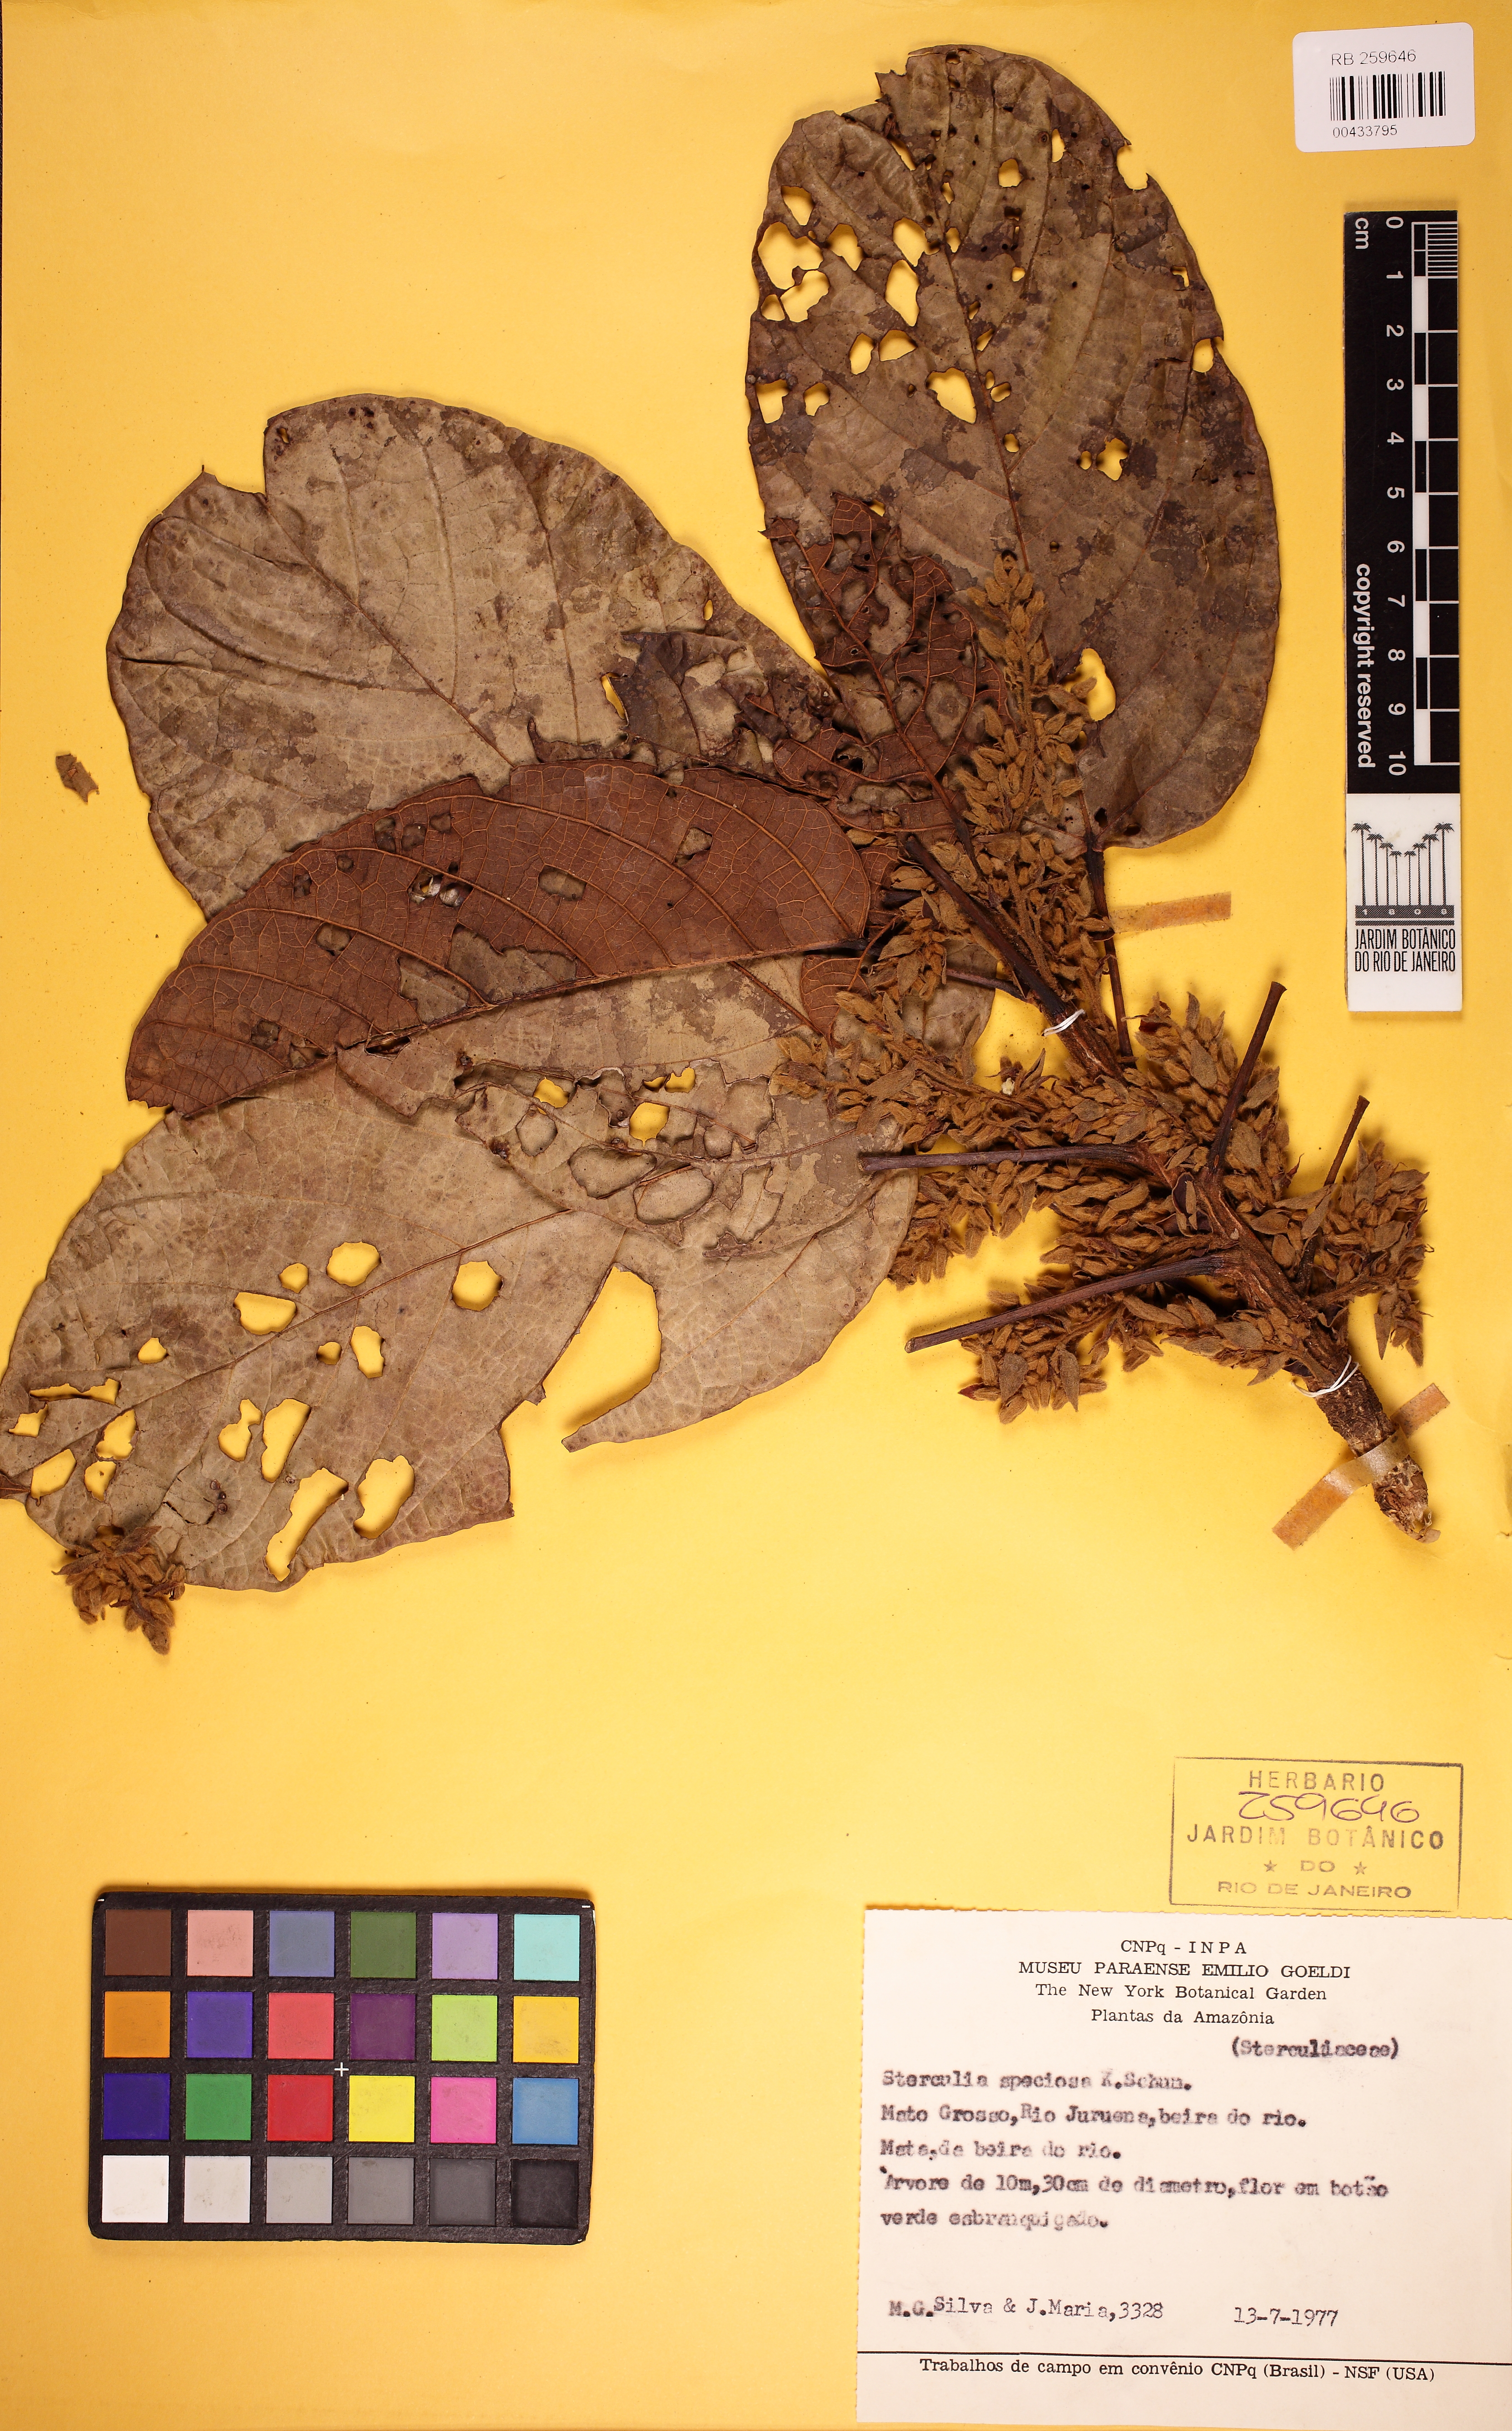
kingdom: Plantae
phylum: Tracheophyta
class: Magnoliopsida
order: Malvales
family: Malvaceae
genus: Sterculia
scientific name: Sterculia speciosa
